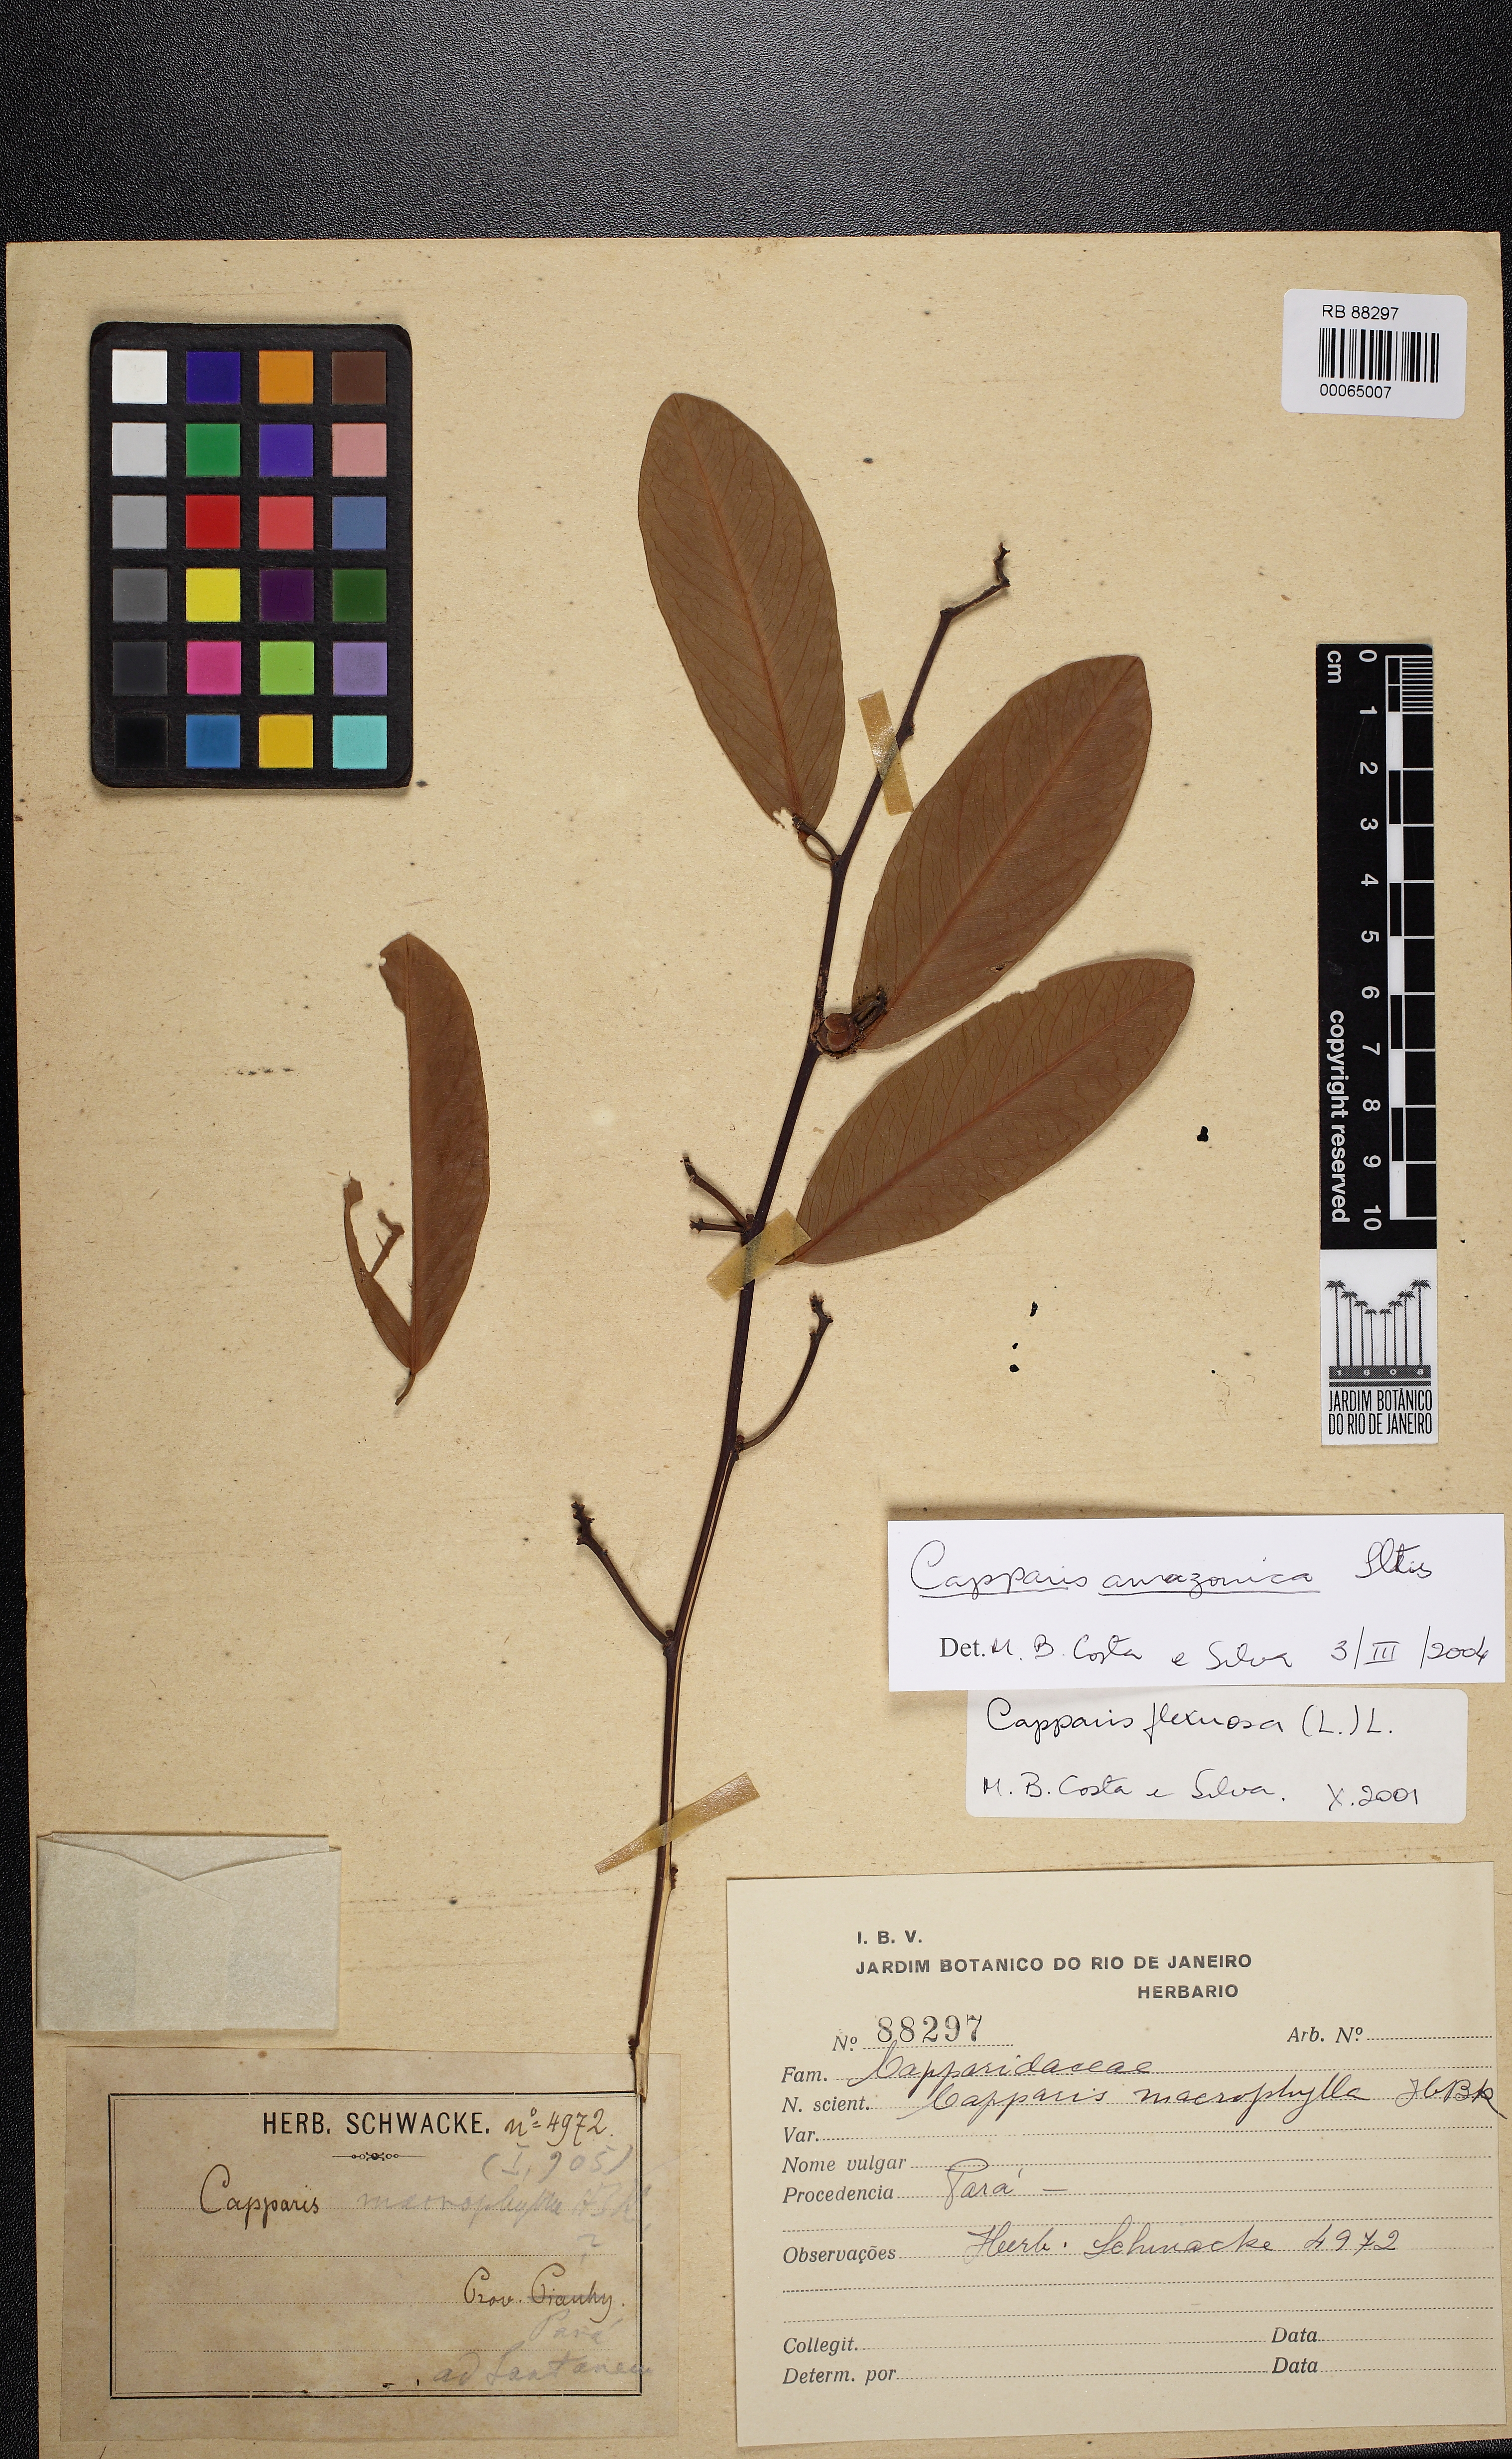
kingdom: Plantae
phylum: Tracheophyta
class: Magnoliopsida
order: Brassicales
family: Capparaceae
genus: Cynophalla
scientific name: Cynophalla flexuosa
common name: Capertree
